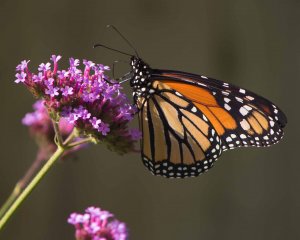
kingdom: Animalia
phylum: Arthropoda
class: Insecta
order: Lepidoptera
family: Nymphalidae
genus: Danaus
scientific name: Danaus plexippus
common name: Monarch
